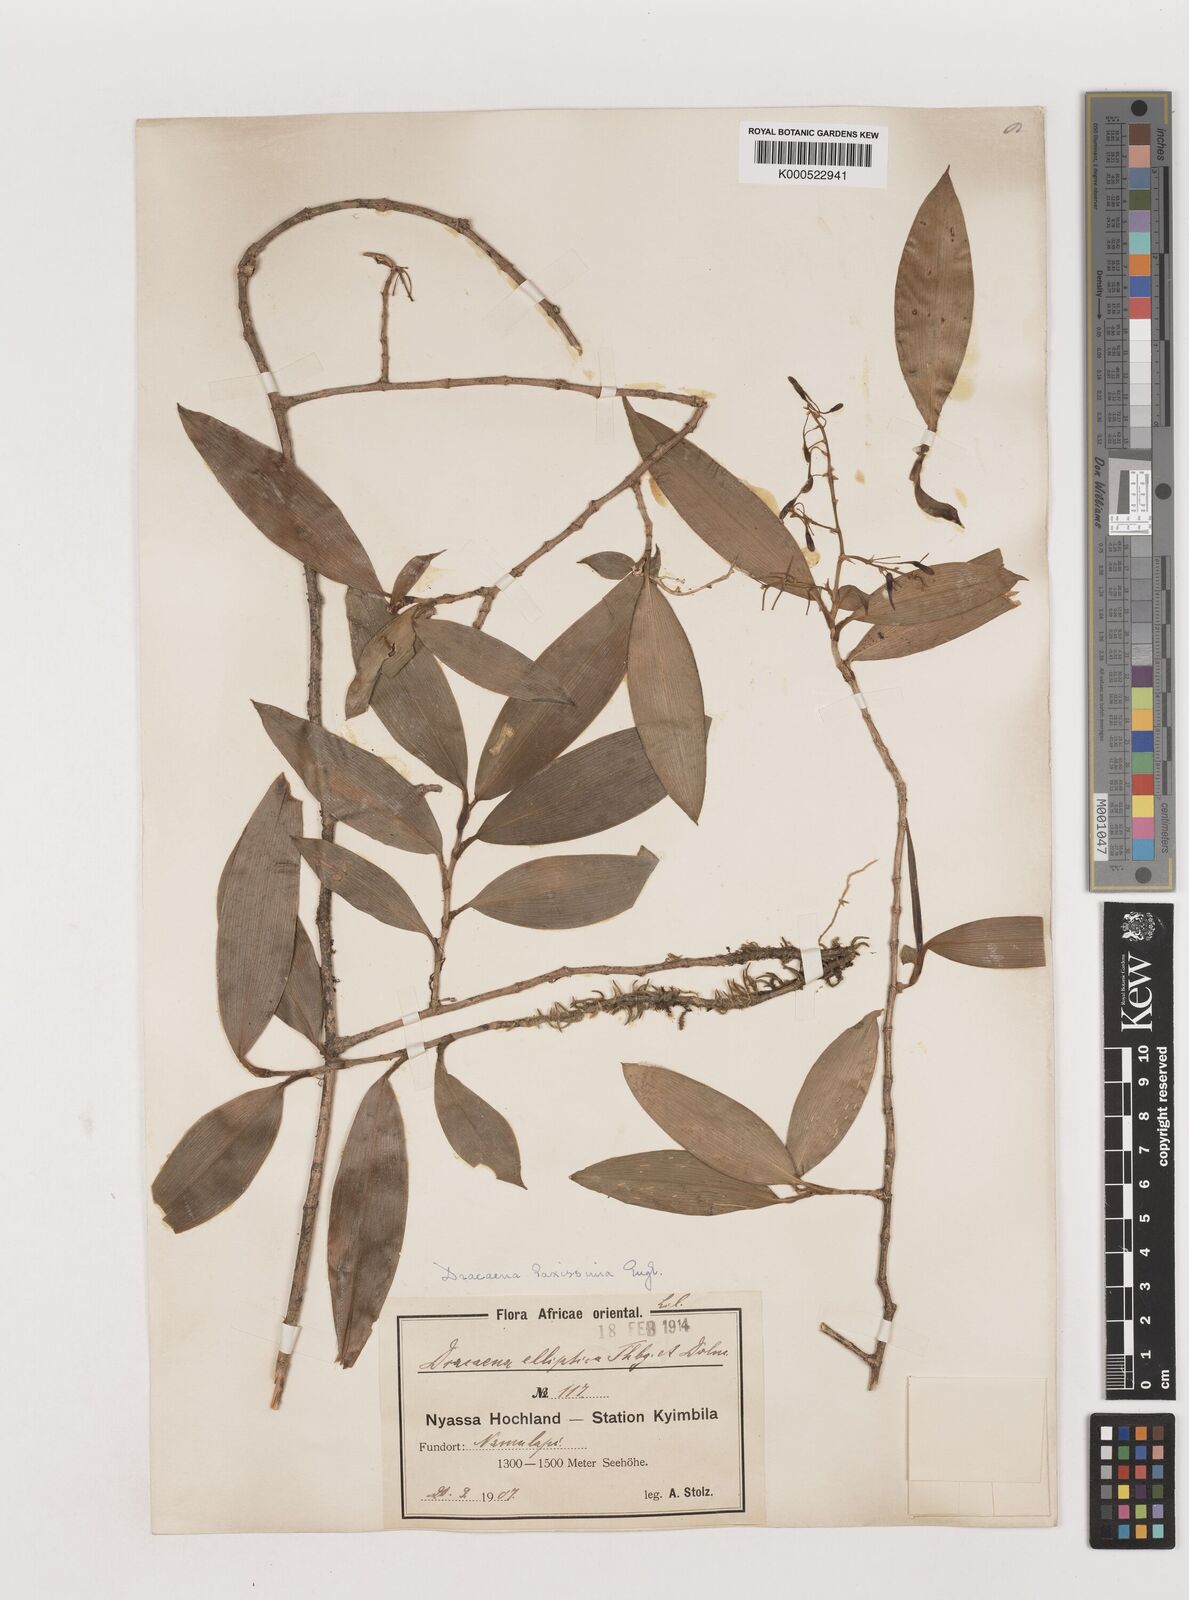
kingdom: Plantae
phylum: Tracheophyta
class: Liliopsida
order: Asparagales
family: Asparagaceae
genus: Dracaena
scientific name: Dracaena laxissima
